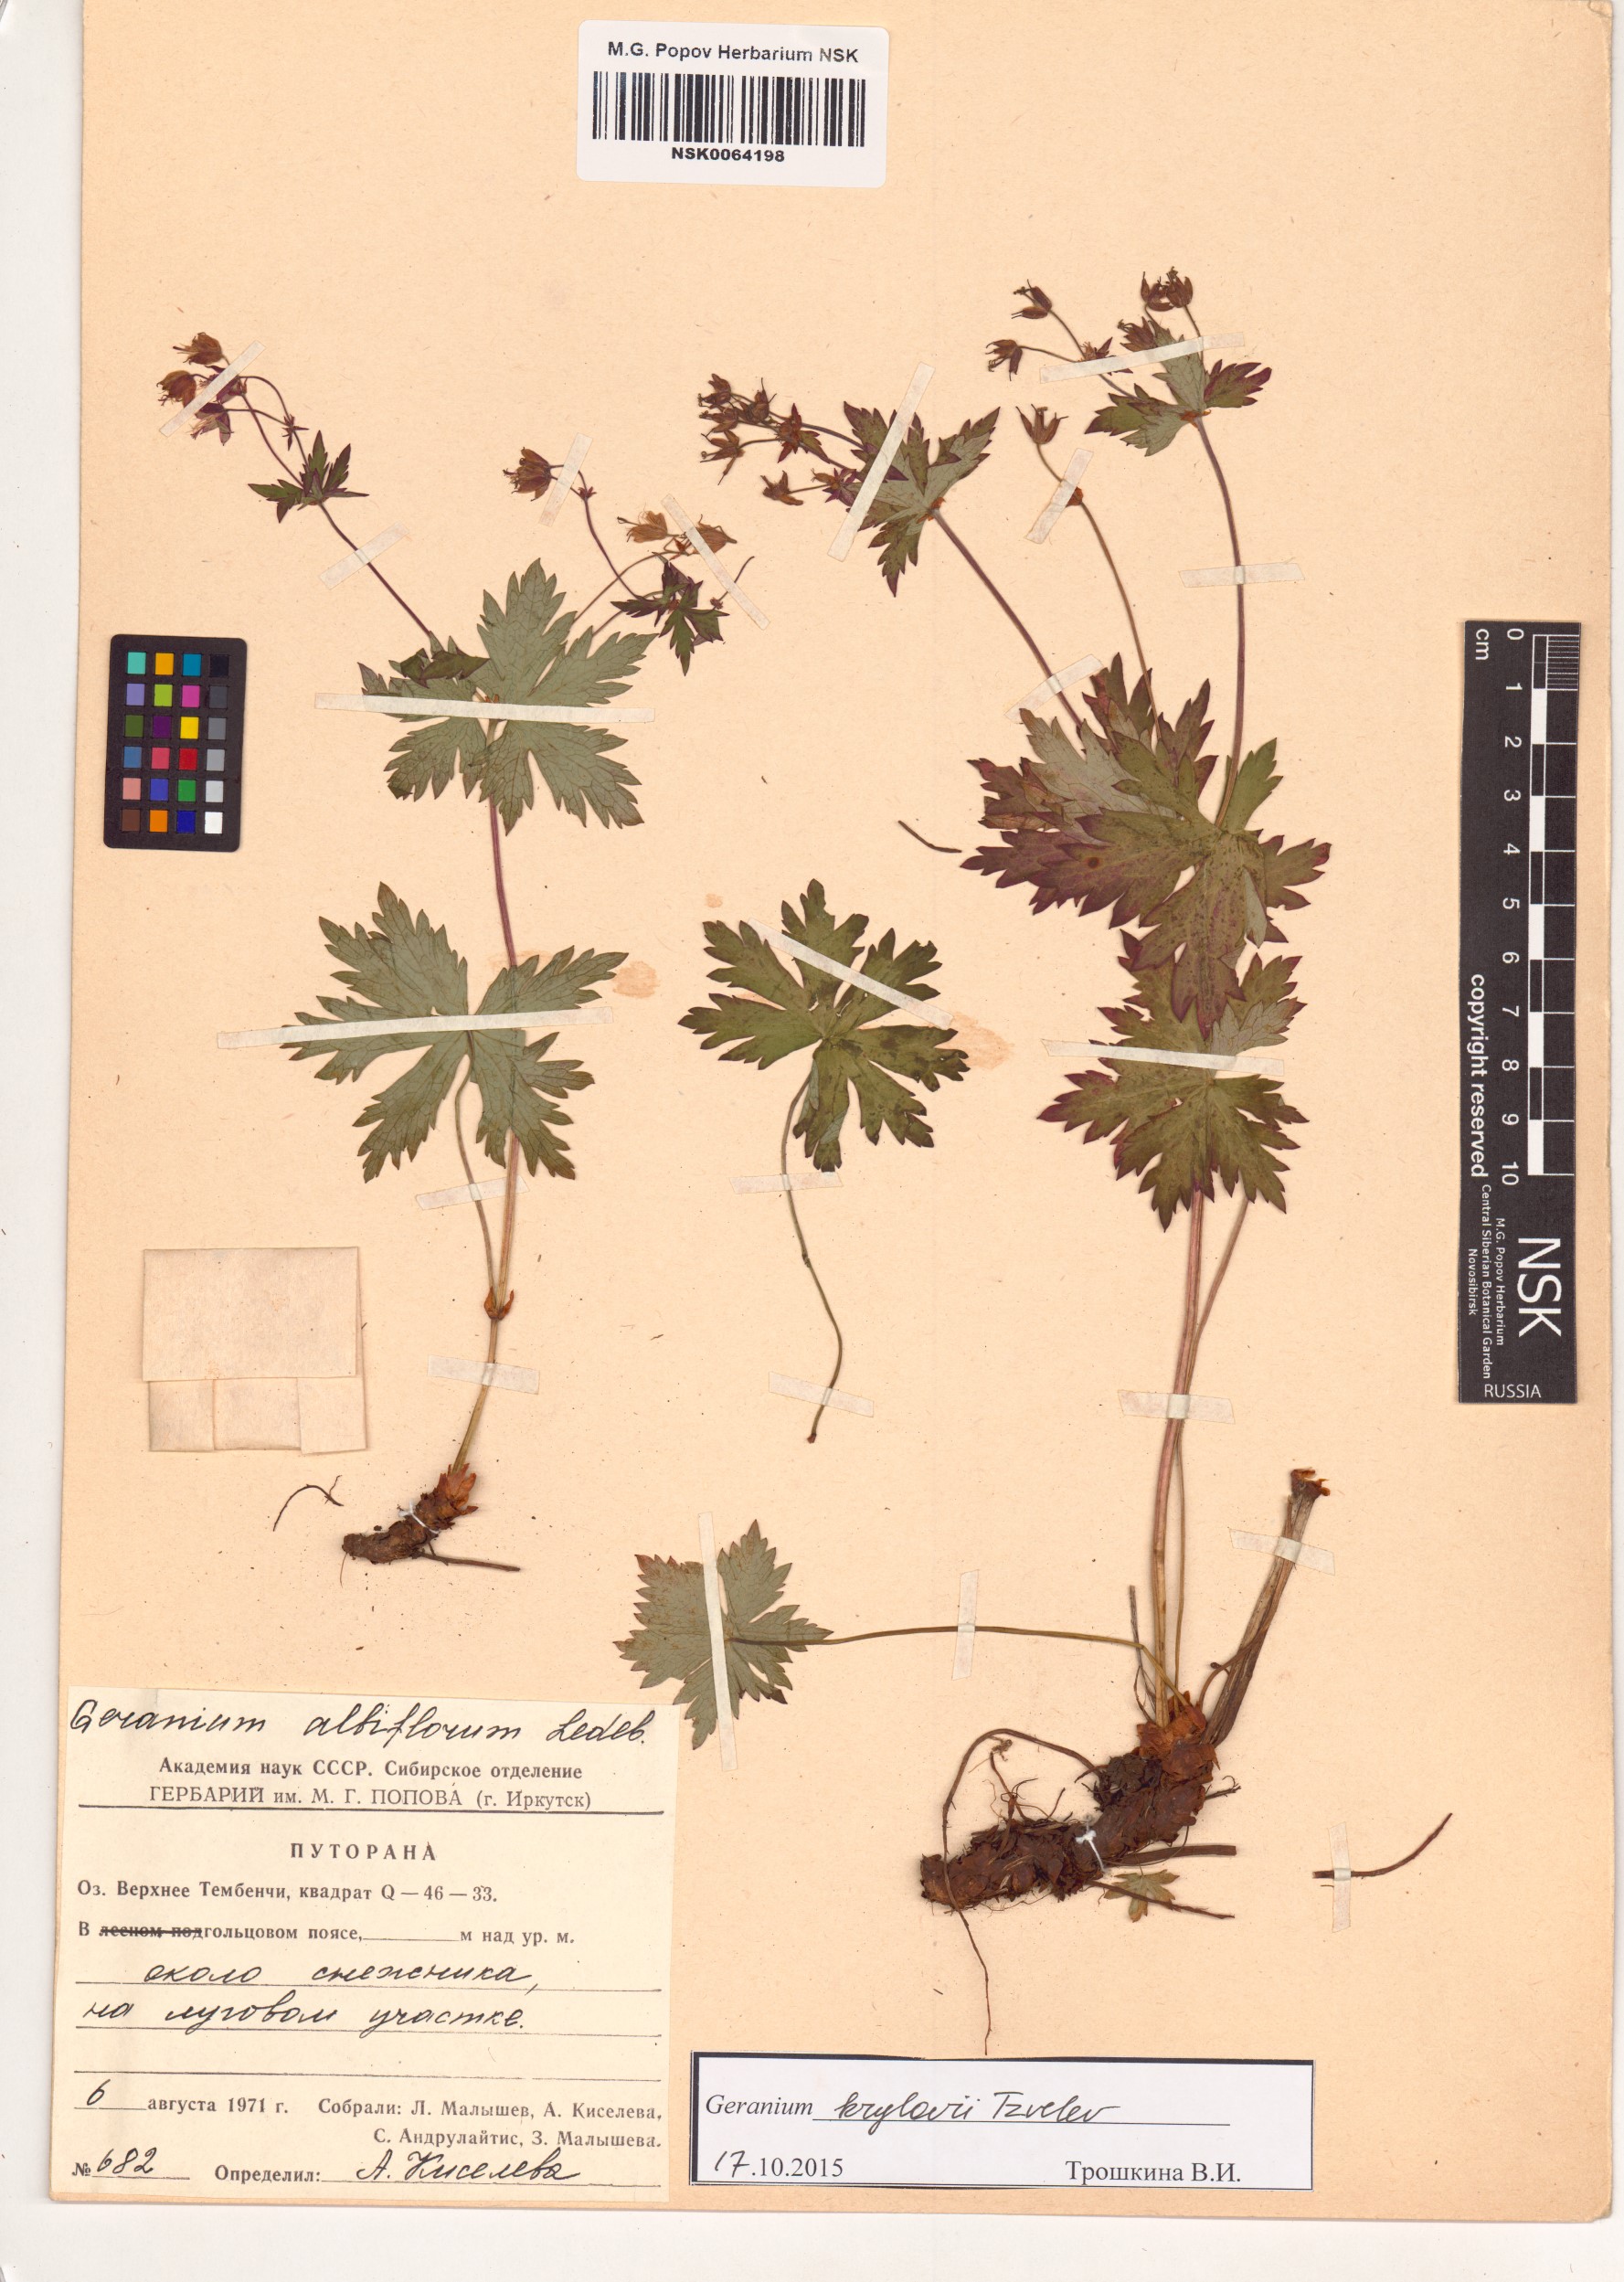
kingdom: Plantae
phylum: Tracheophyta
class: Magnoliopsida
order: Geraniales
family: Geraniaceae
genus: Geranium
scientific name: Geranium sylvaticum
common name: Wood crane's-bill
